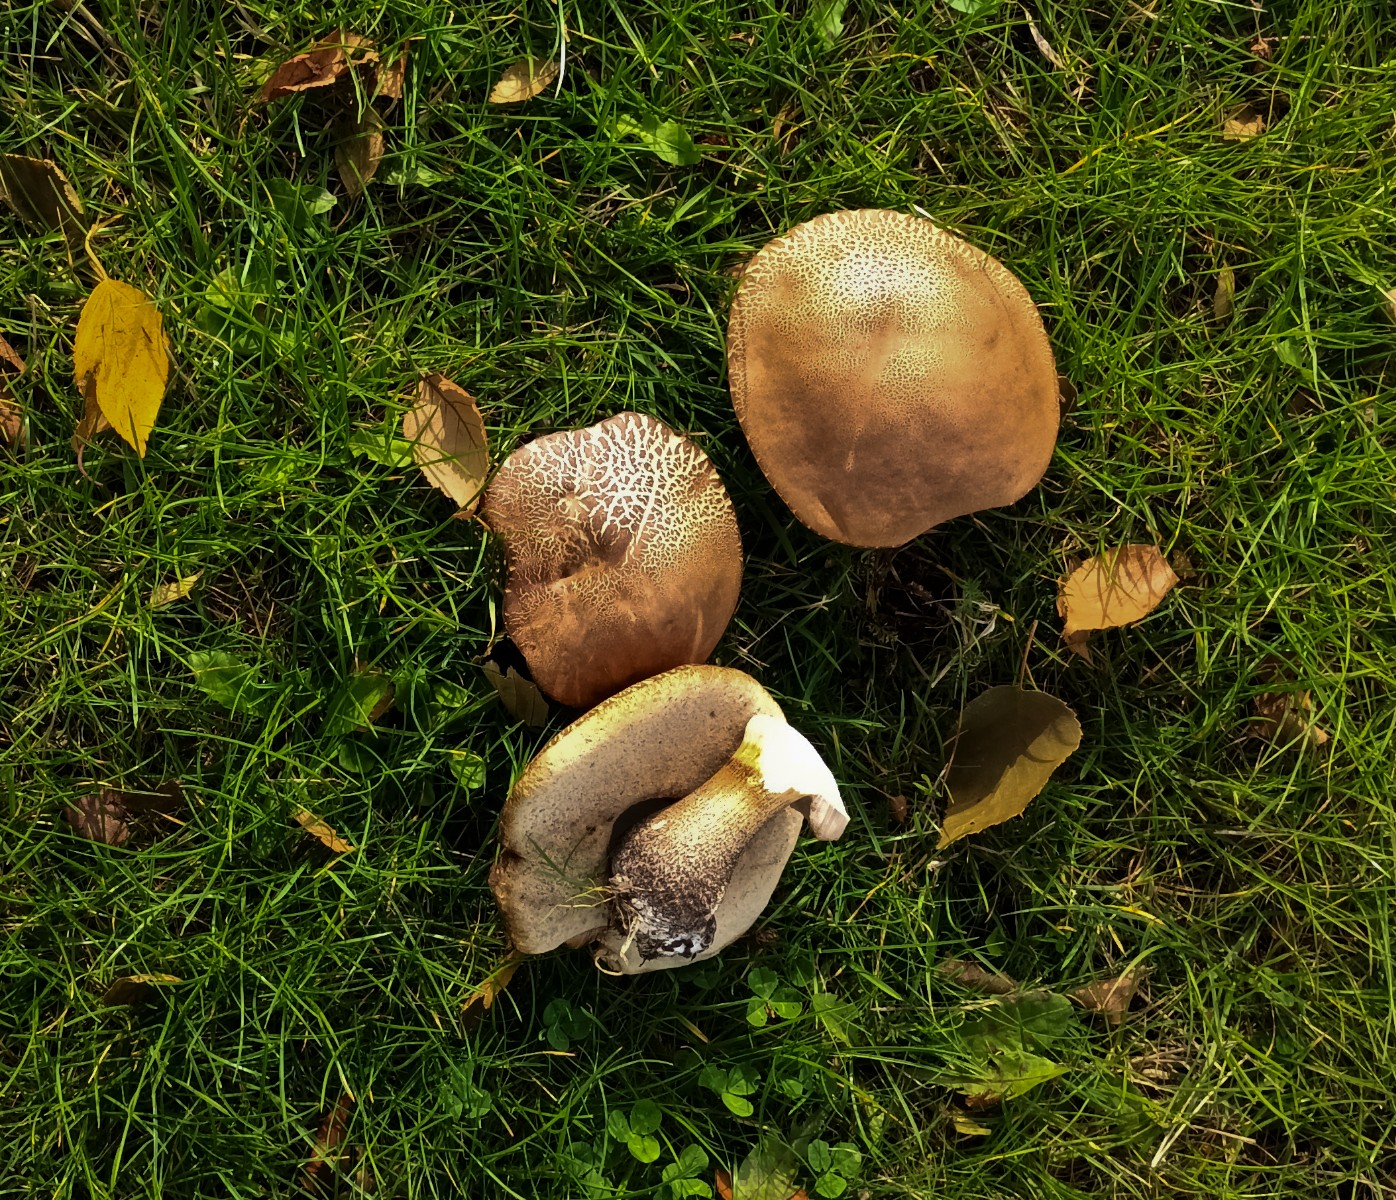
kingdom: Fungi
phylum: Basidiomycota
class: Agaricomycetes
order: Boletales
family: Boletaceae
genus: Leccinum
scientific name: Leccinum
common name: skælrørhat
